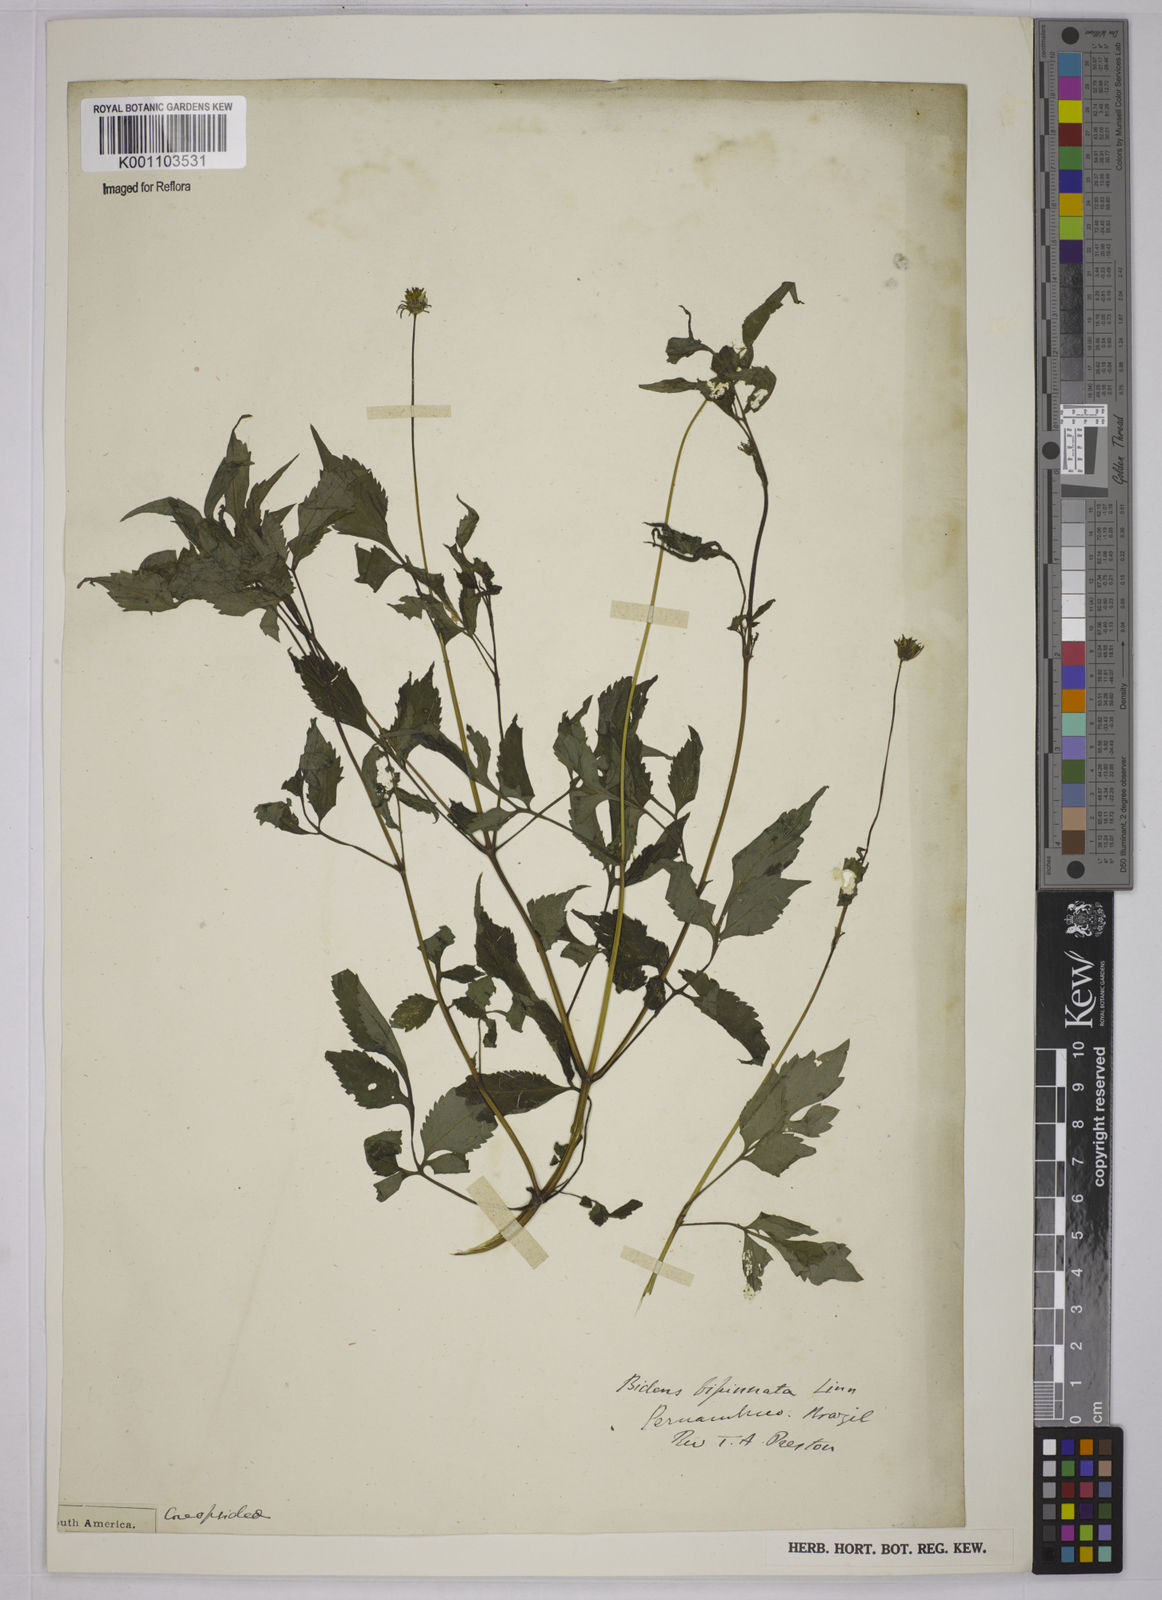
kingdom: Plantae
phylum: Tracheophyta
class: Magnoliopsida
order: Asterales
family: Asteraceae
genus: Bidens
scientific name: Bidens bipinnata
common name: Spanish-needles
